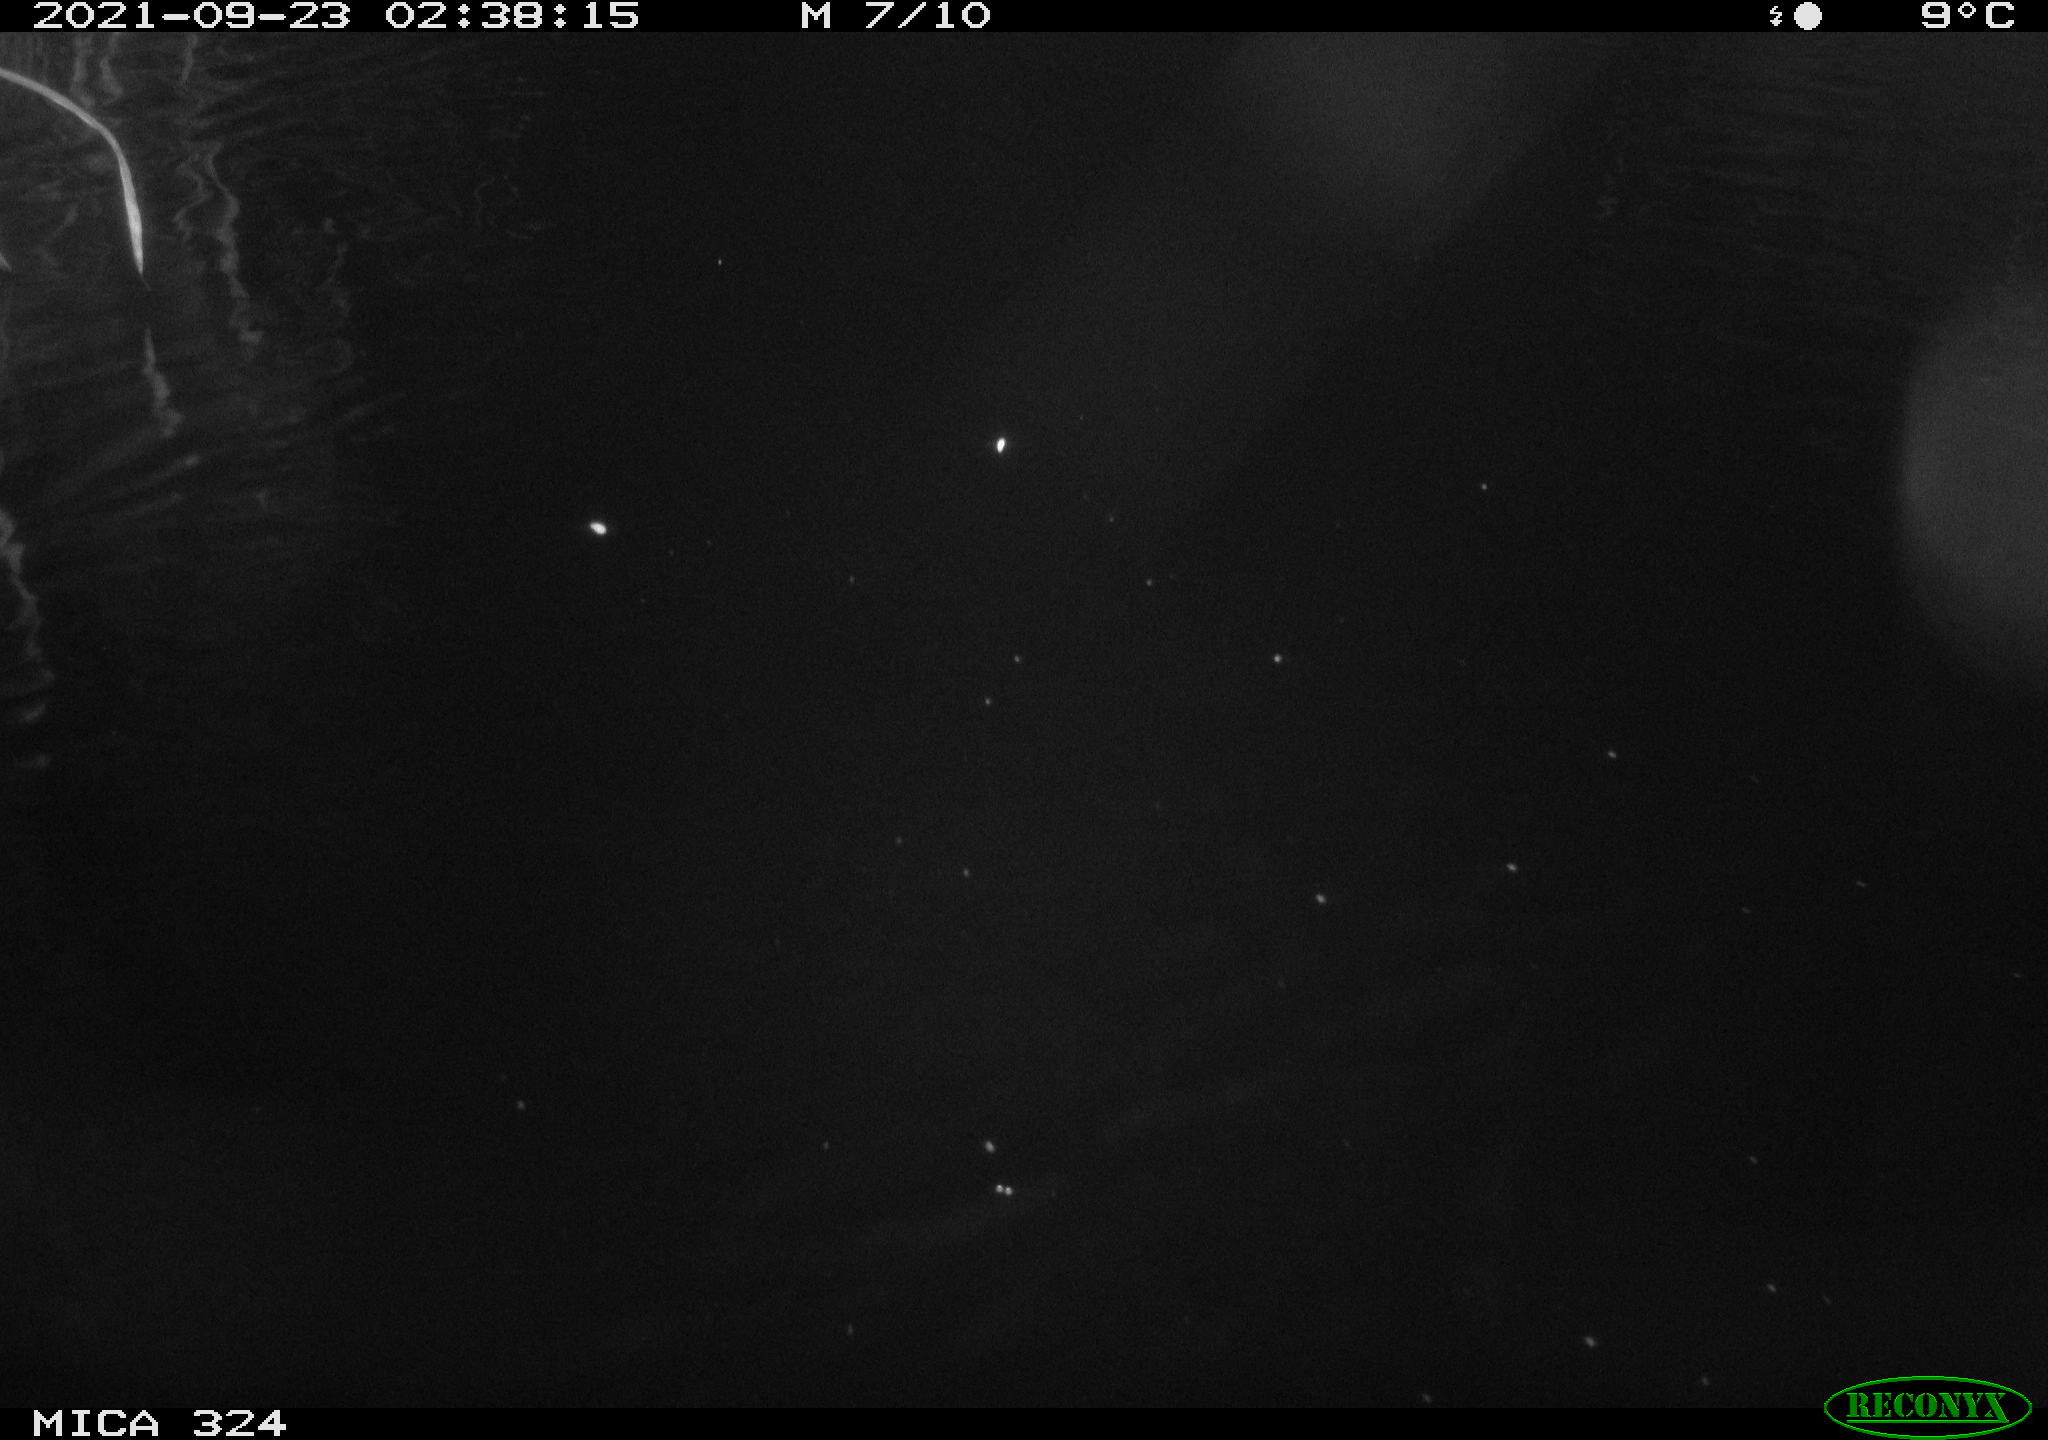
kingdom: Animalia
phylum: Chordata
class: Mammalia
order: Rodentia
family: Cricetidae
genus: Ondatra
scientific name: Ondatra zibethicus
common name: Muskrat
